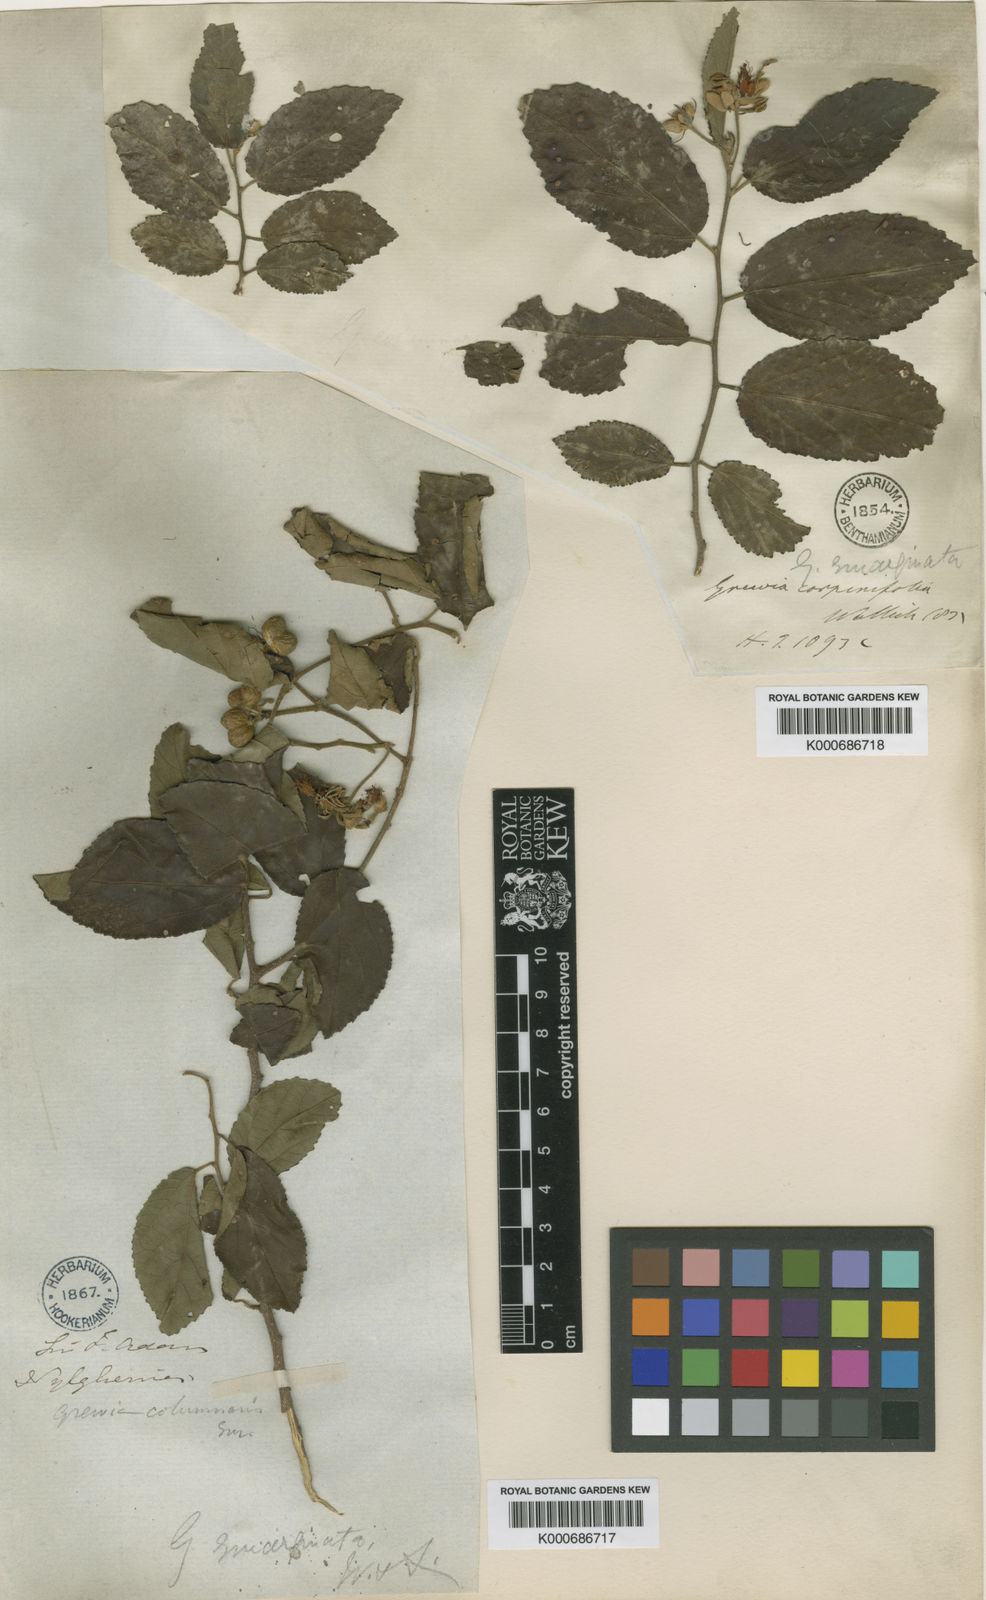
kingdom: Plantae
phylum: Tracheophyta
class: Magnoliopsida
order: Malvales
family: Malvaceae
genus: Grewia
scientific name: Grewia oppositifolia
